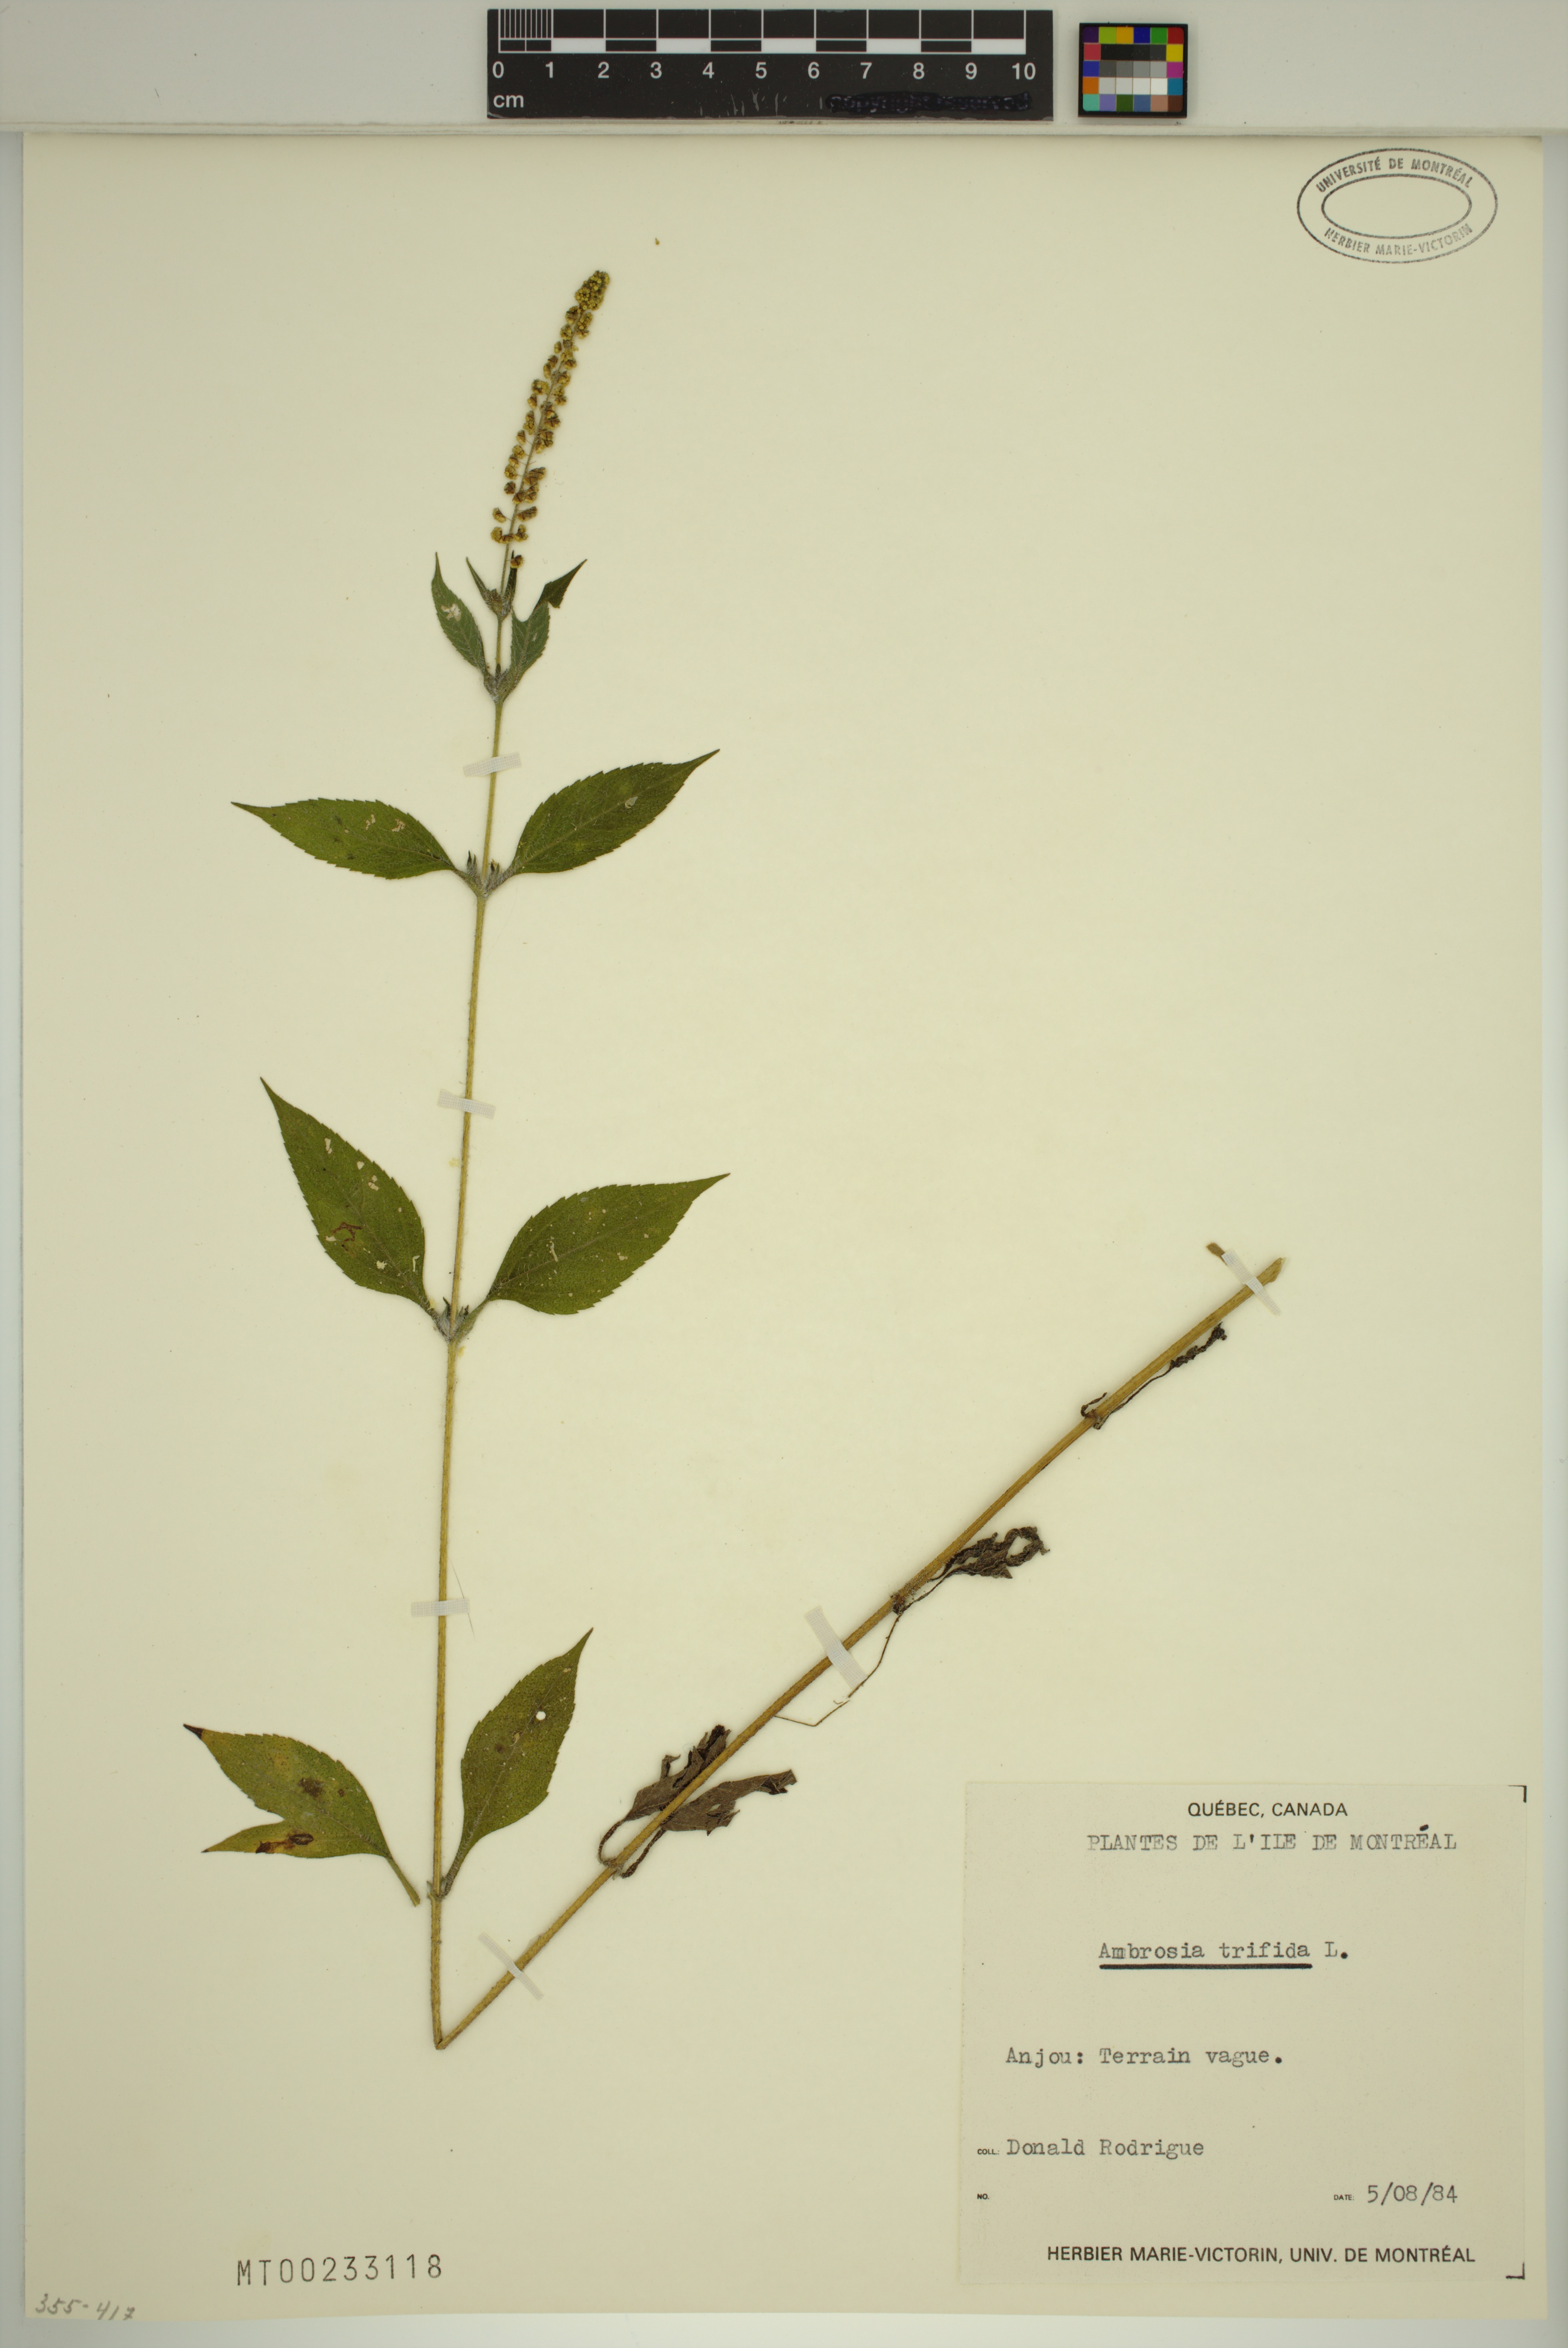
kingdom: Plantae
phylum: Tracheophyta
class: Magnoliopsida
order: Asterales
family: Asteraceae
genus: Ambrosia
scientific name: Ambrosia trifida
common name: Giant ragweed
